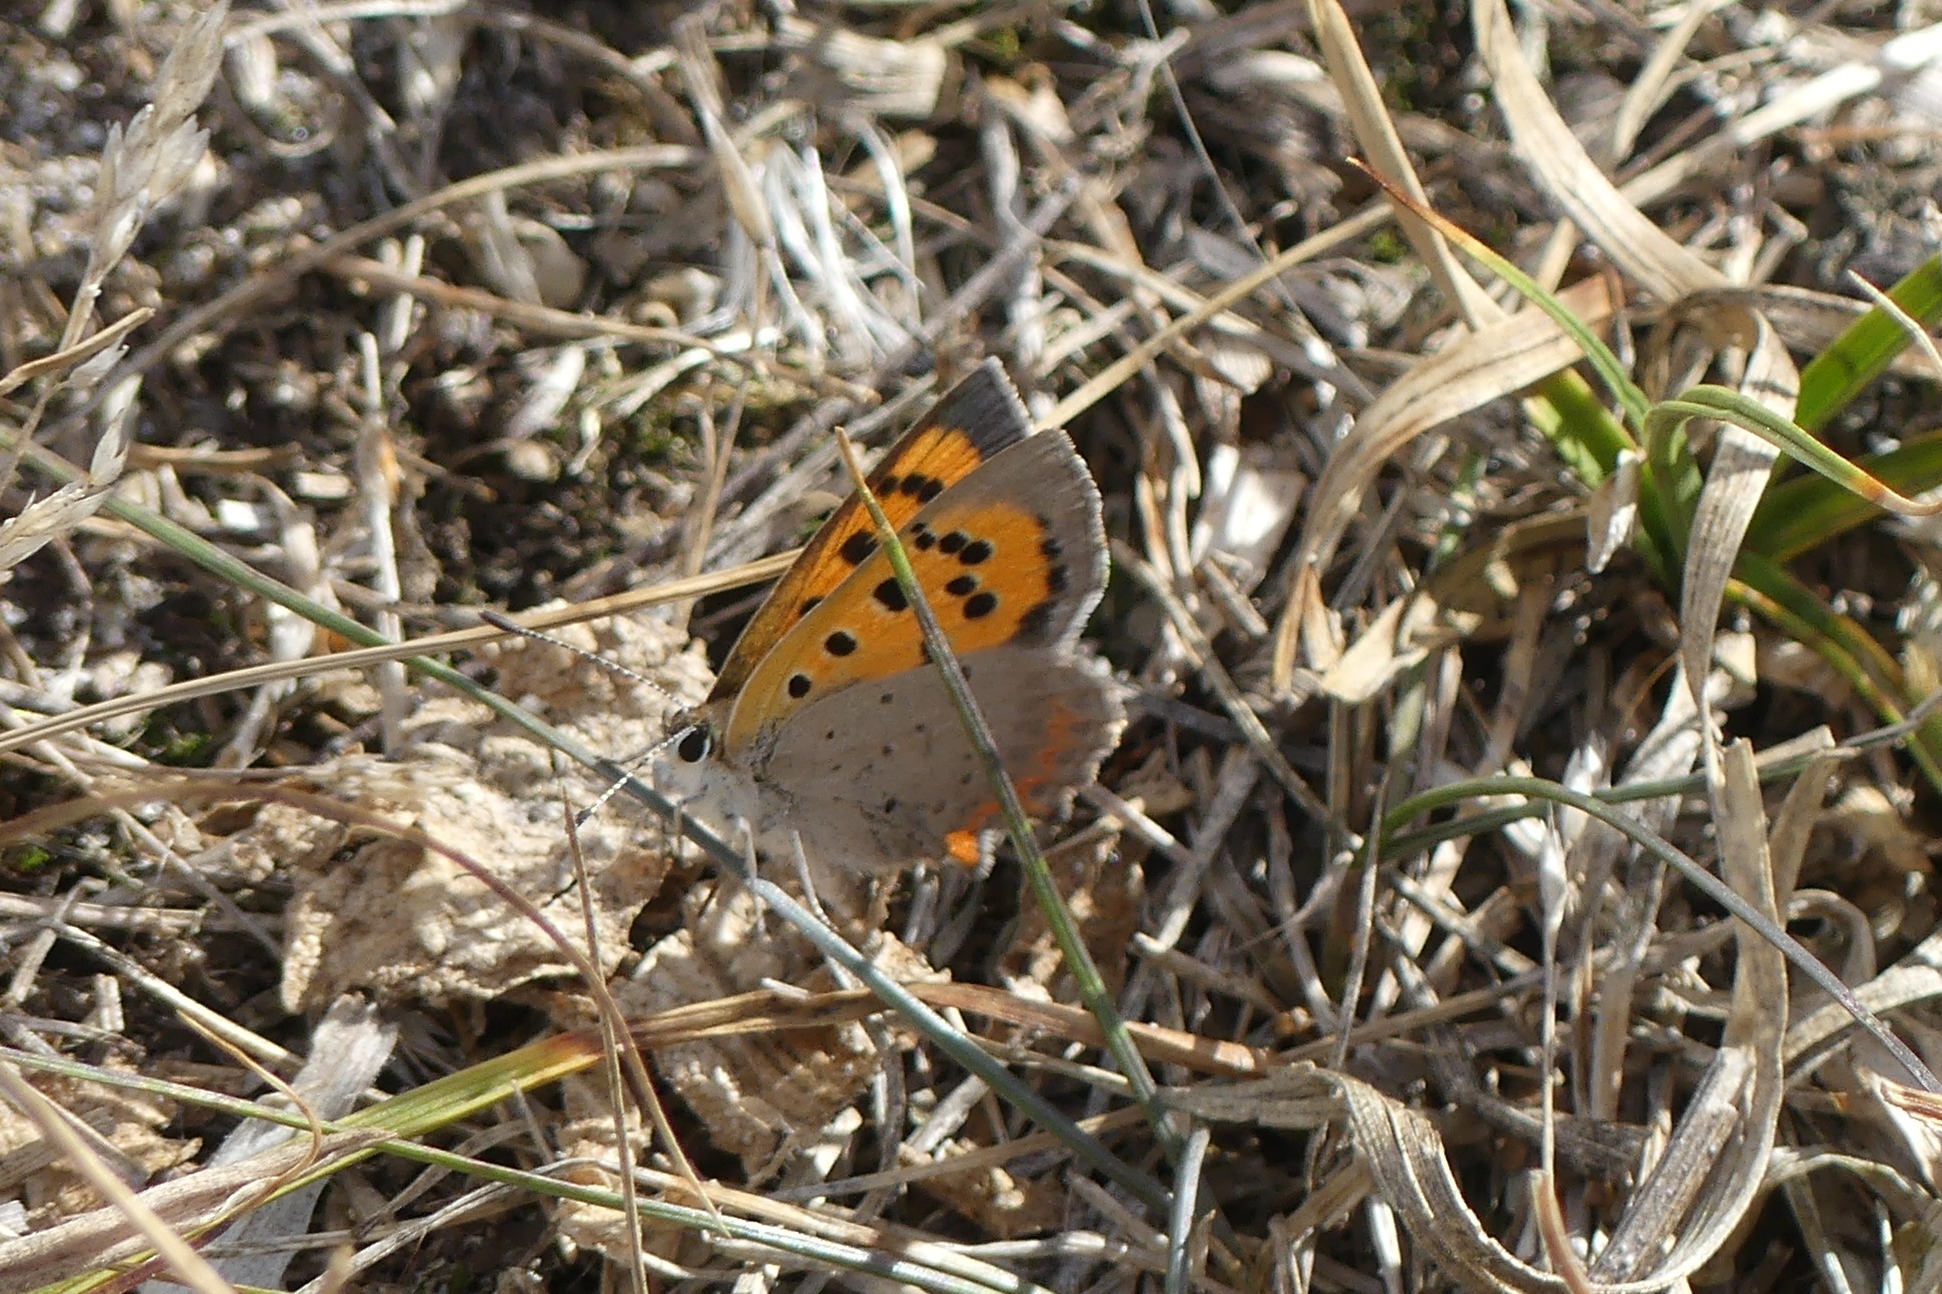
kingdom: Animalia
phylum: Arthropoda
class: Insecta
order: Lepidoptera
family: Lycaenidae
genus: Lycaena
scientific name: Lycaena phlaeas
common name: Lille ildfugl
